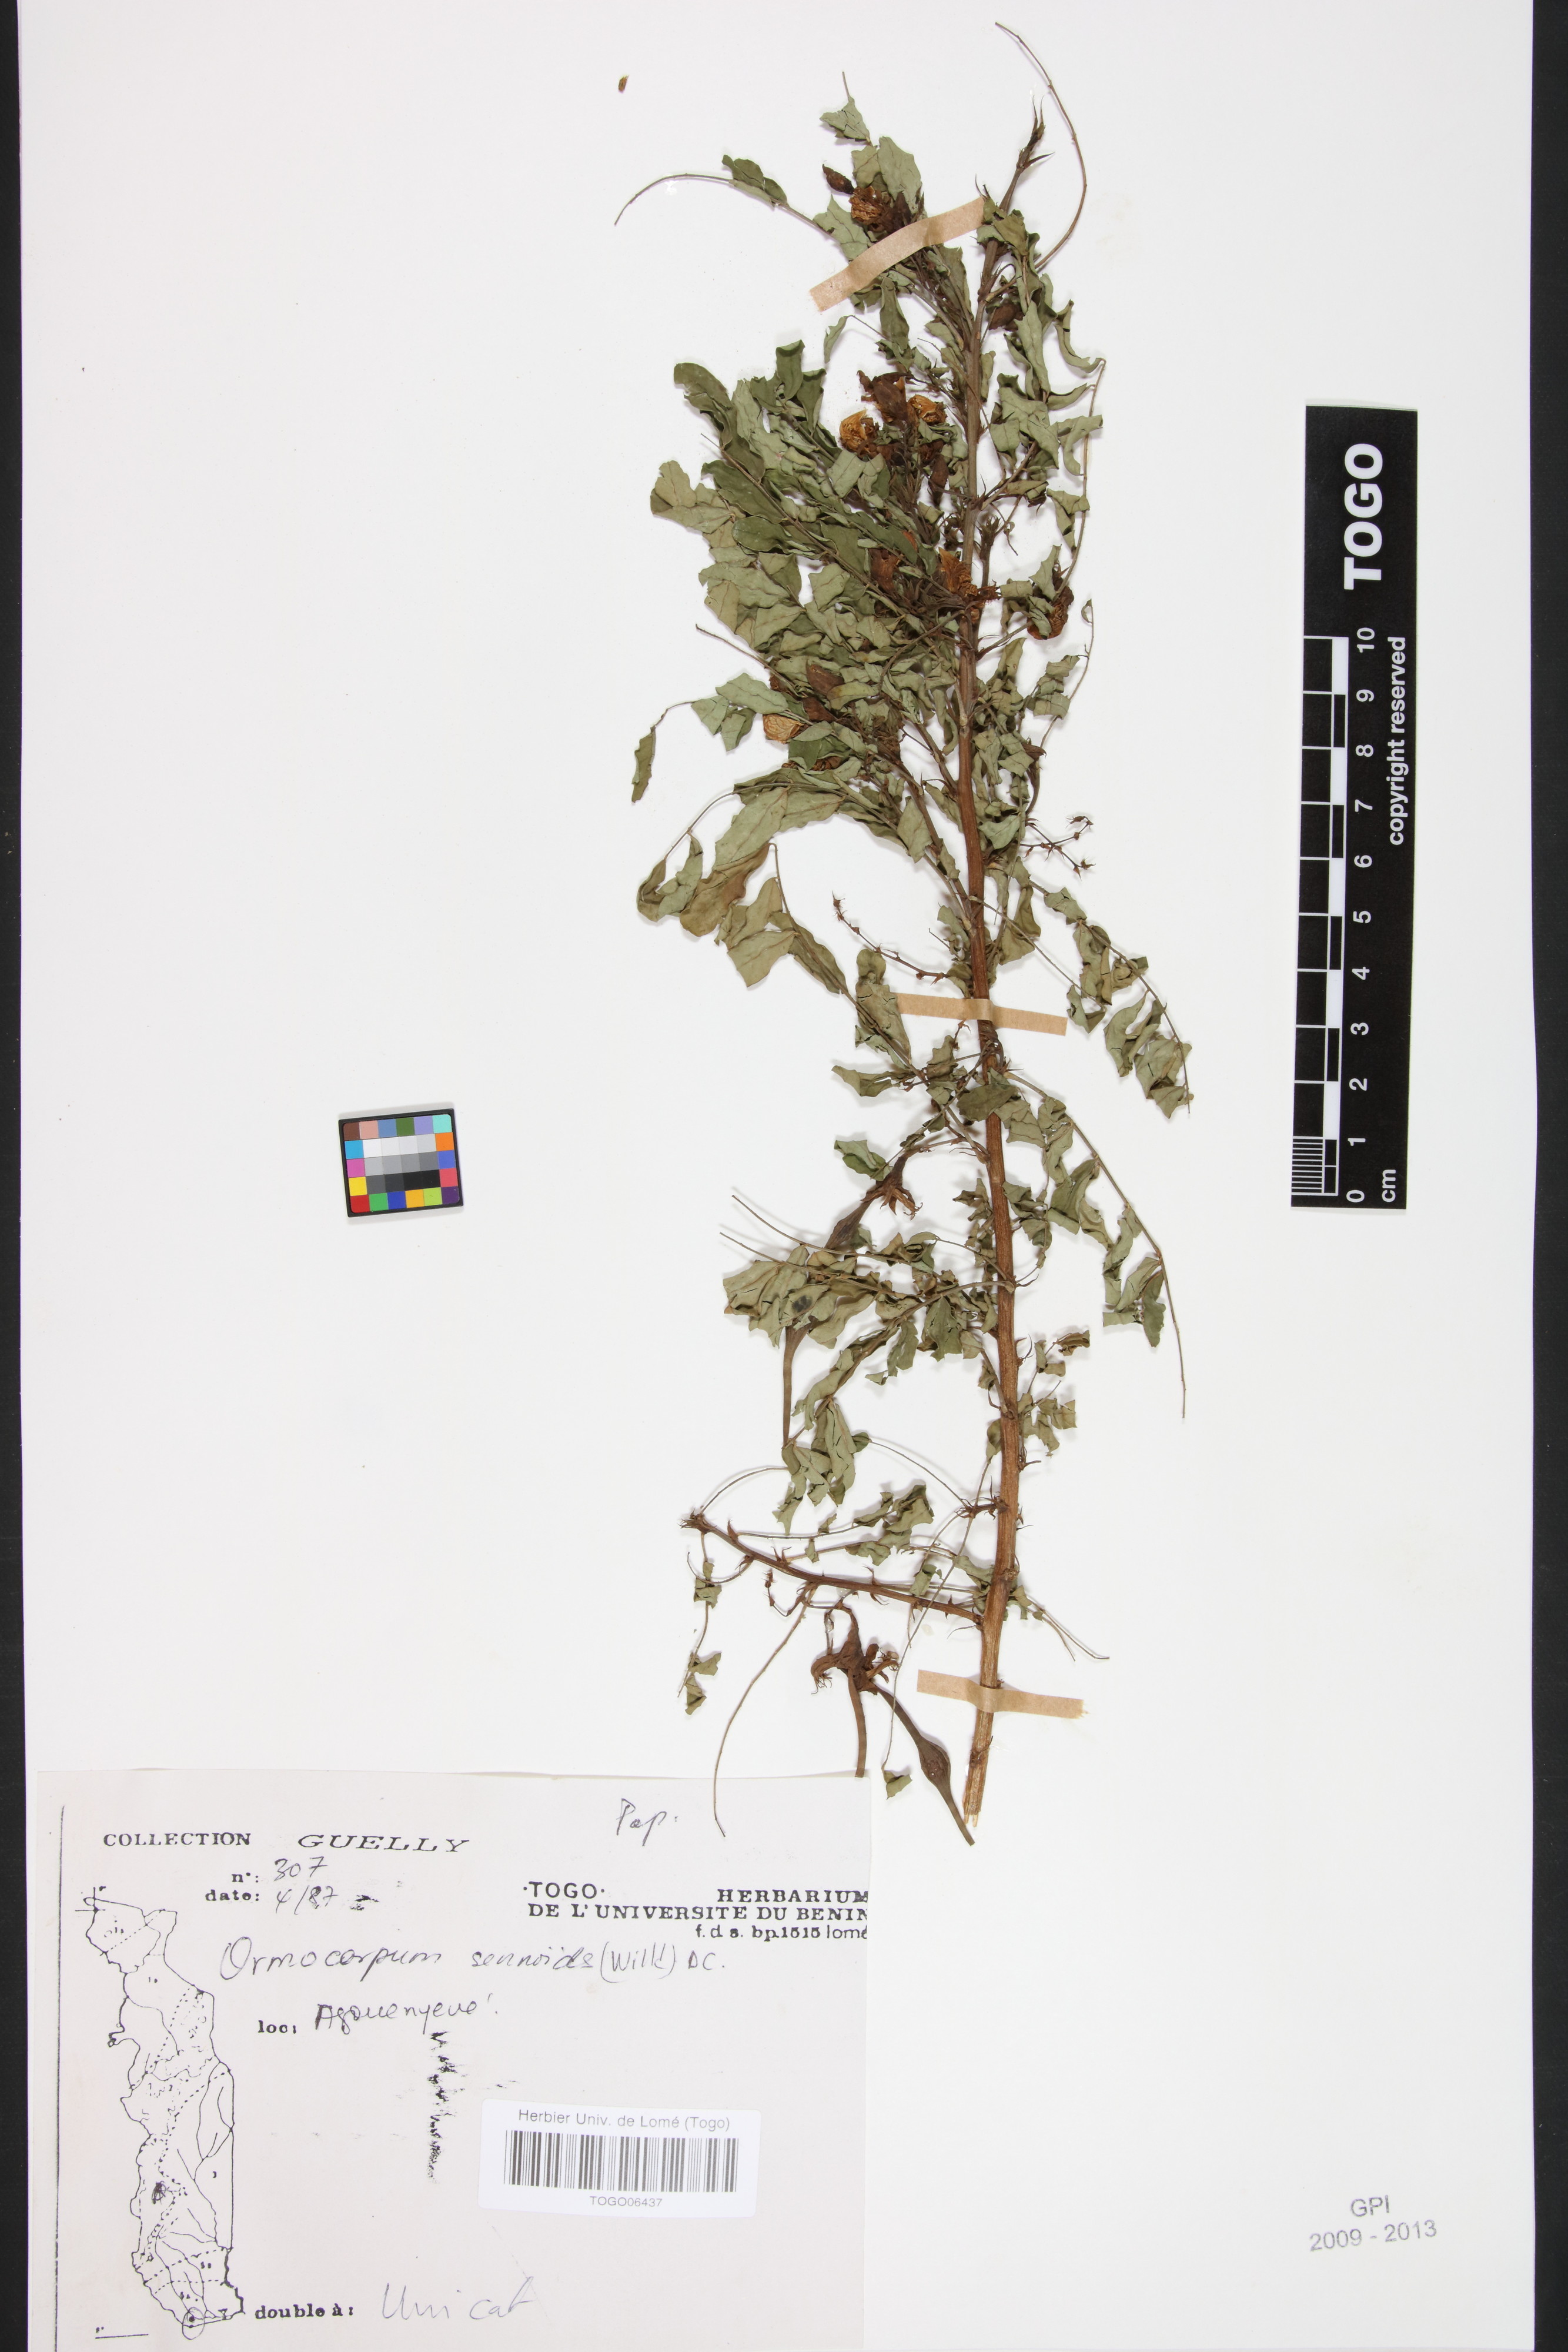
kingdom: Plantae
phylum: Tracheophyta
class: Magnoliopsida
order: Fabales
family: Fabaceae
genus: Ormocarpum
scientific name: Ormocarpum sennoides
